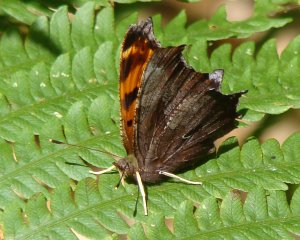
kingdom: Animalia
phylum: Arthropoda
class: Insecta
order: Lepidoptera
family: Nymphalidae
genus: Polygonia
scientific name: Polygonia comma
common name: Eastern Comma
